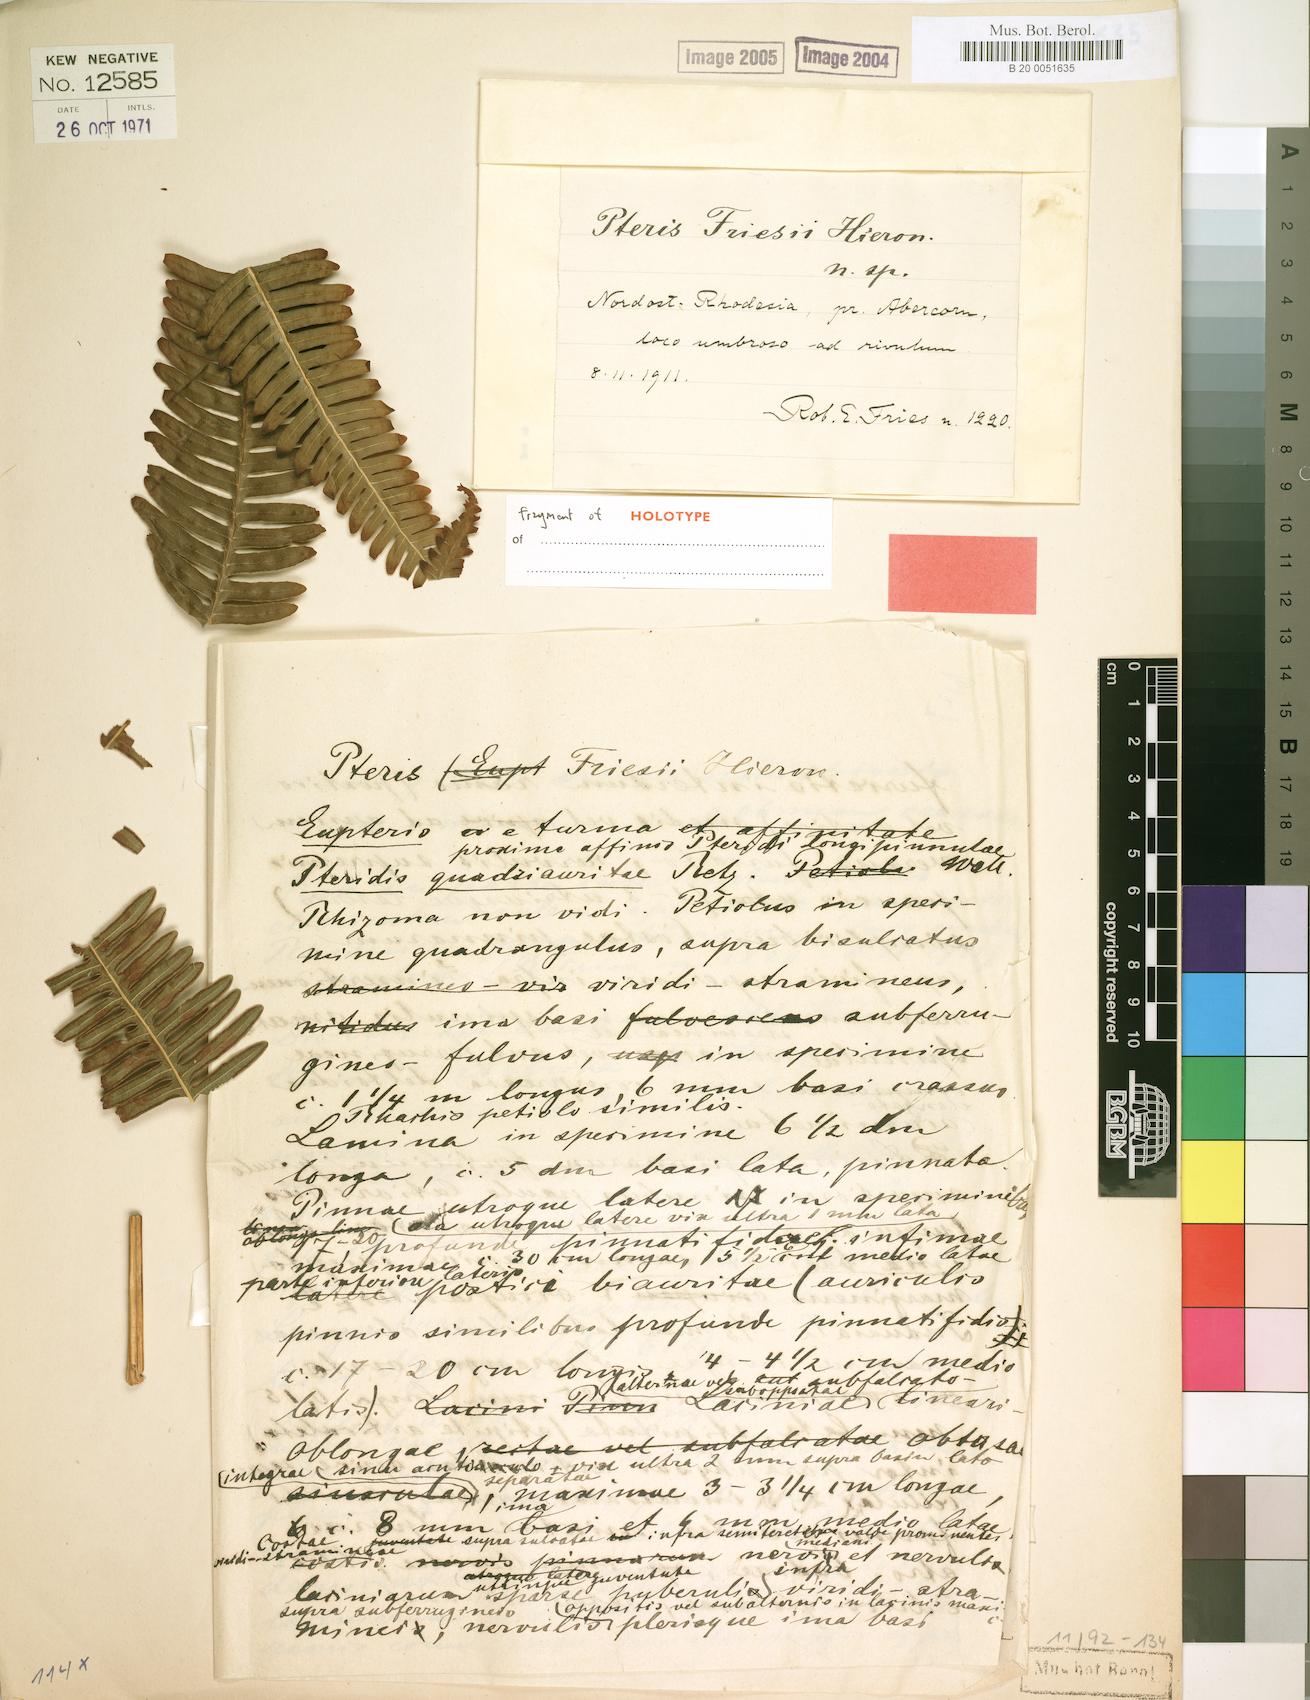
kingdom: Plantae
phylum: Tracheophyta
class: Polypodiopsida
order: Polypodiales
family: Pteridaceae
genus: Pteris
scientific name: Pteris friesii
